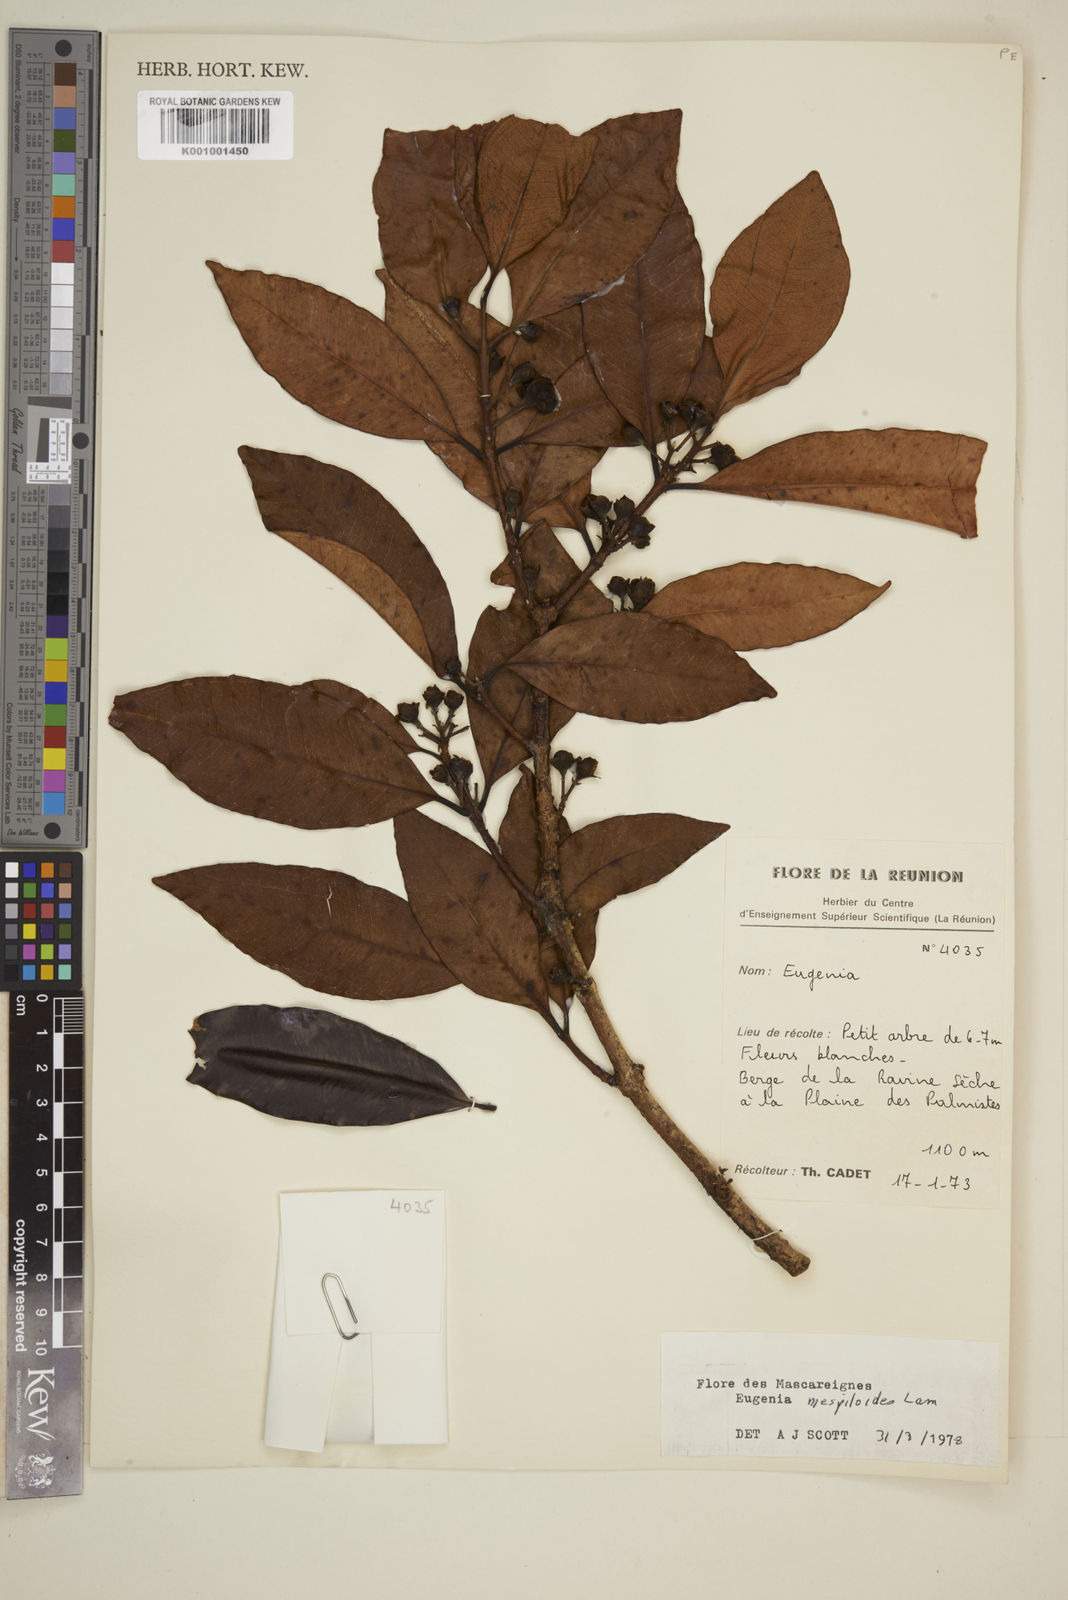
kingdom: Plantae
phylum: Tracheophyta
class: Magnoliopsida
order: Myrtales
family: Myrtaceae
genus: Eugenia
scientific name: Eugenia mespiloides
